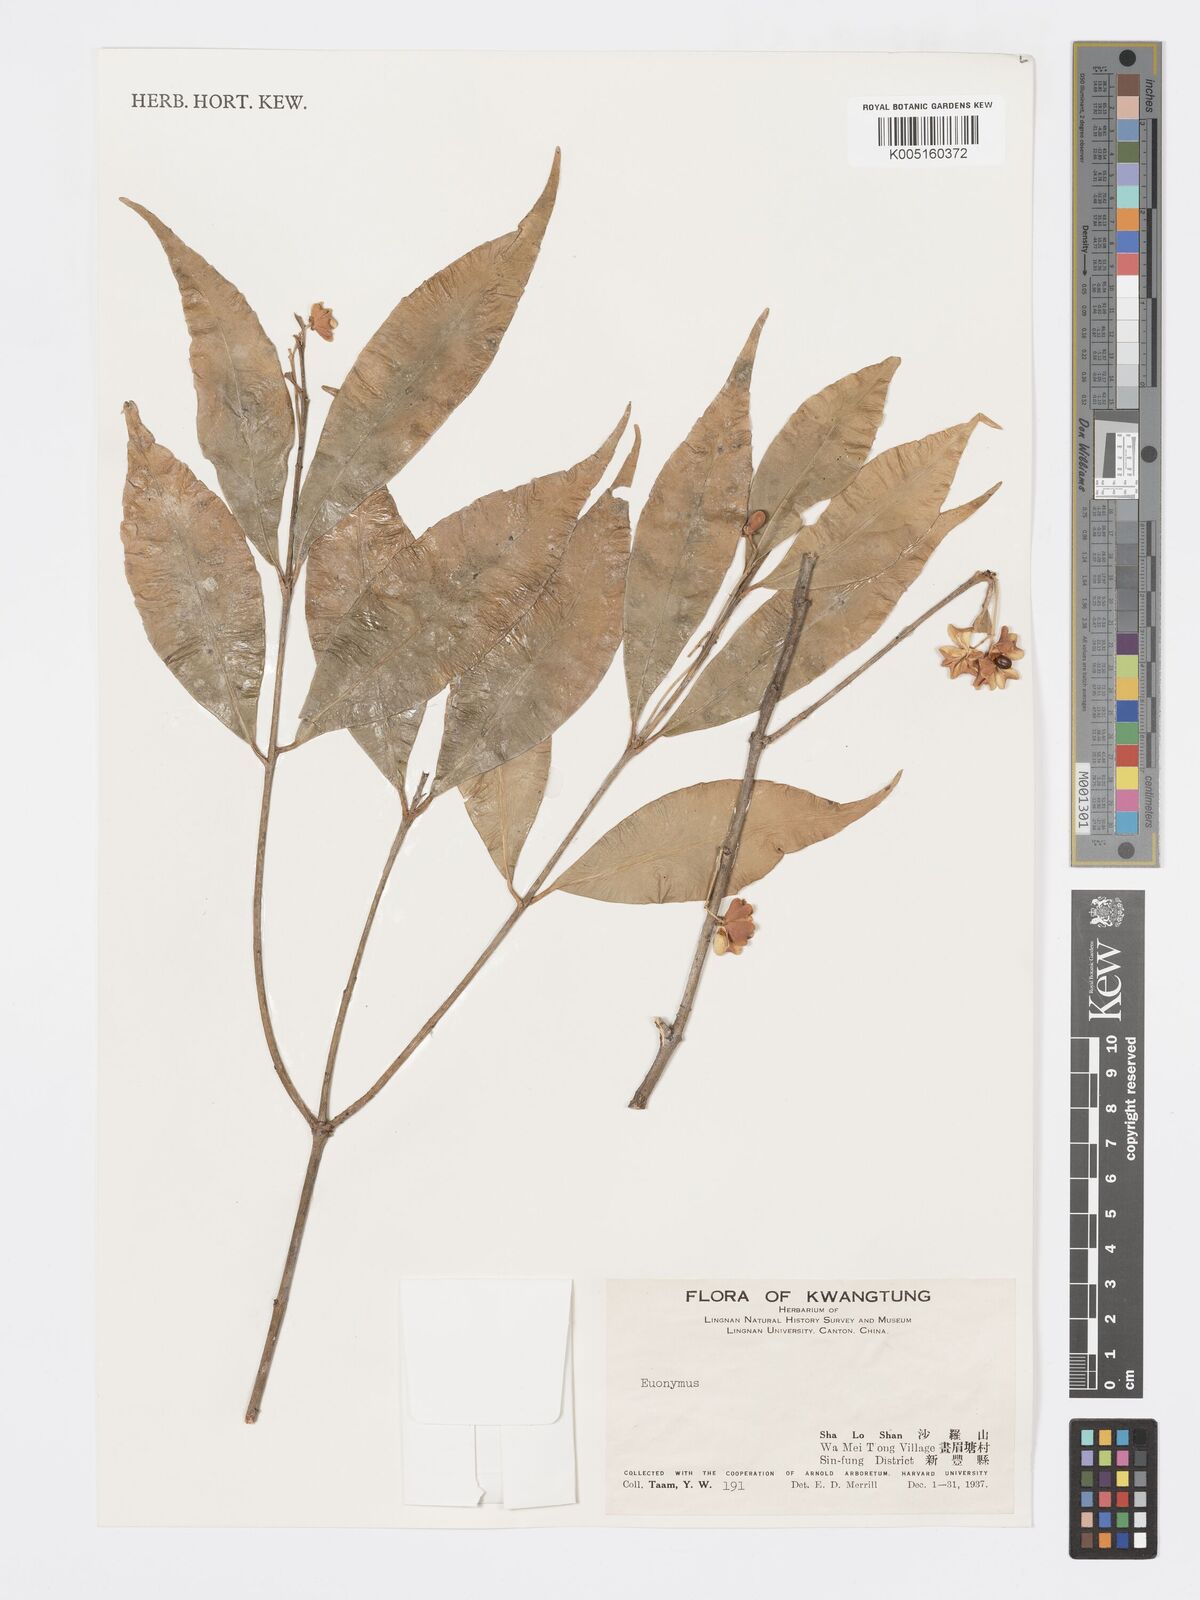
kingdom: Plantae
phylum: Tracheophyta
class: Magnoliopsida
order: Celastrales
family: Celastraceae
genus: Euonymus
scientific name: Euonymus
